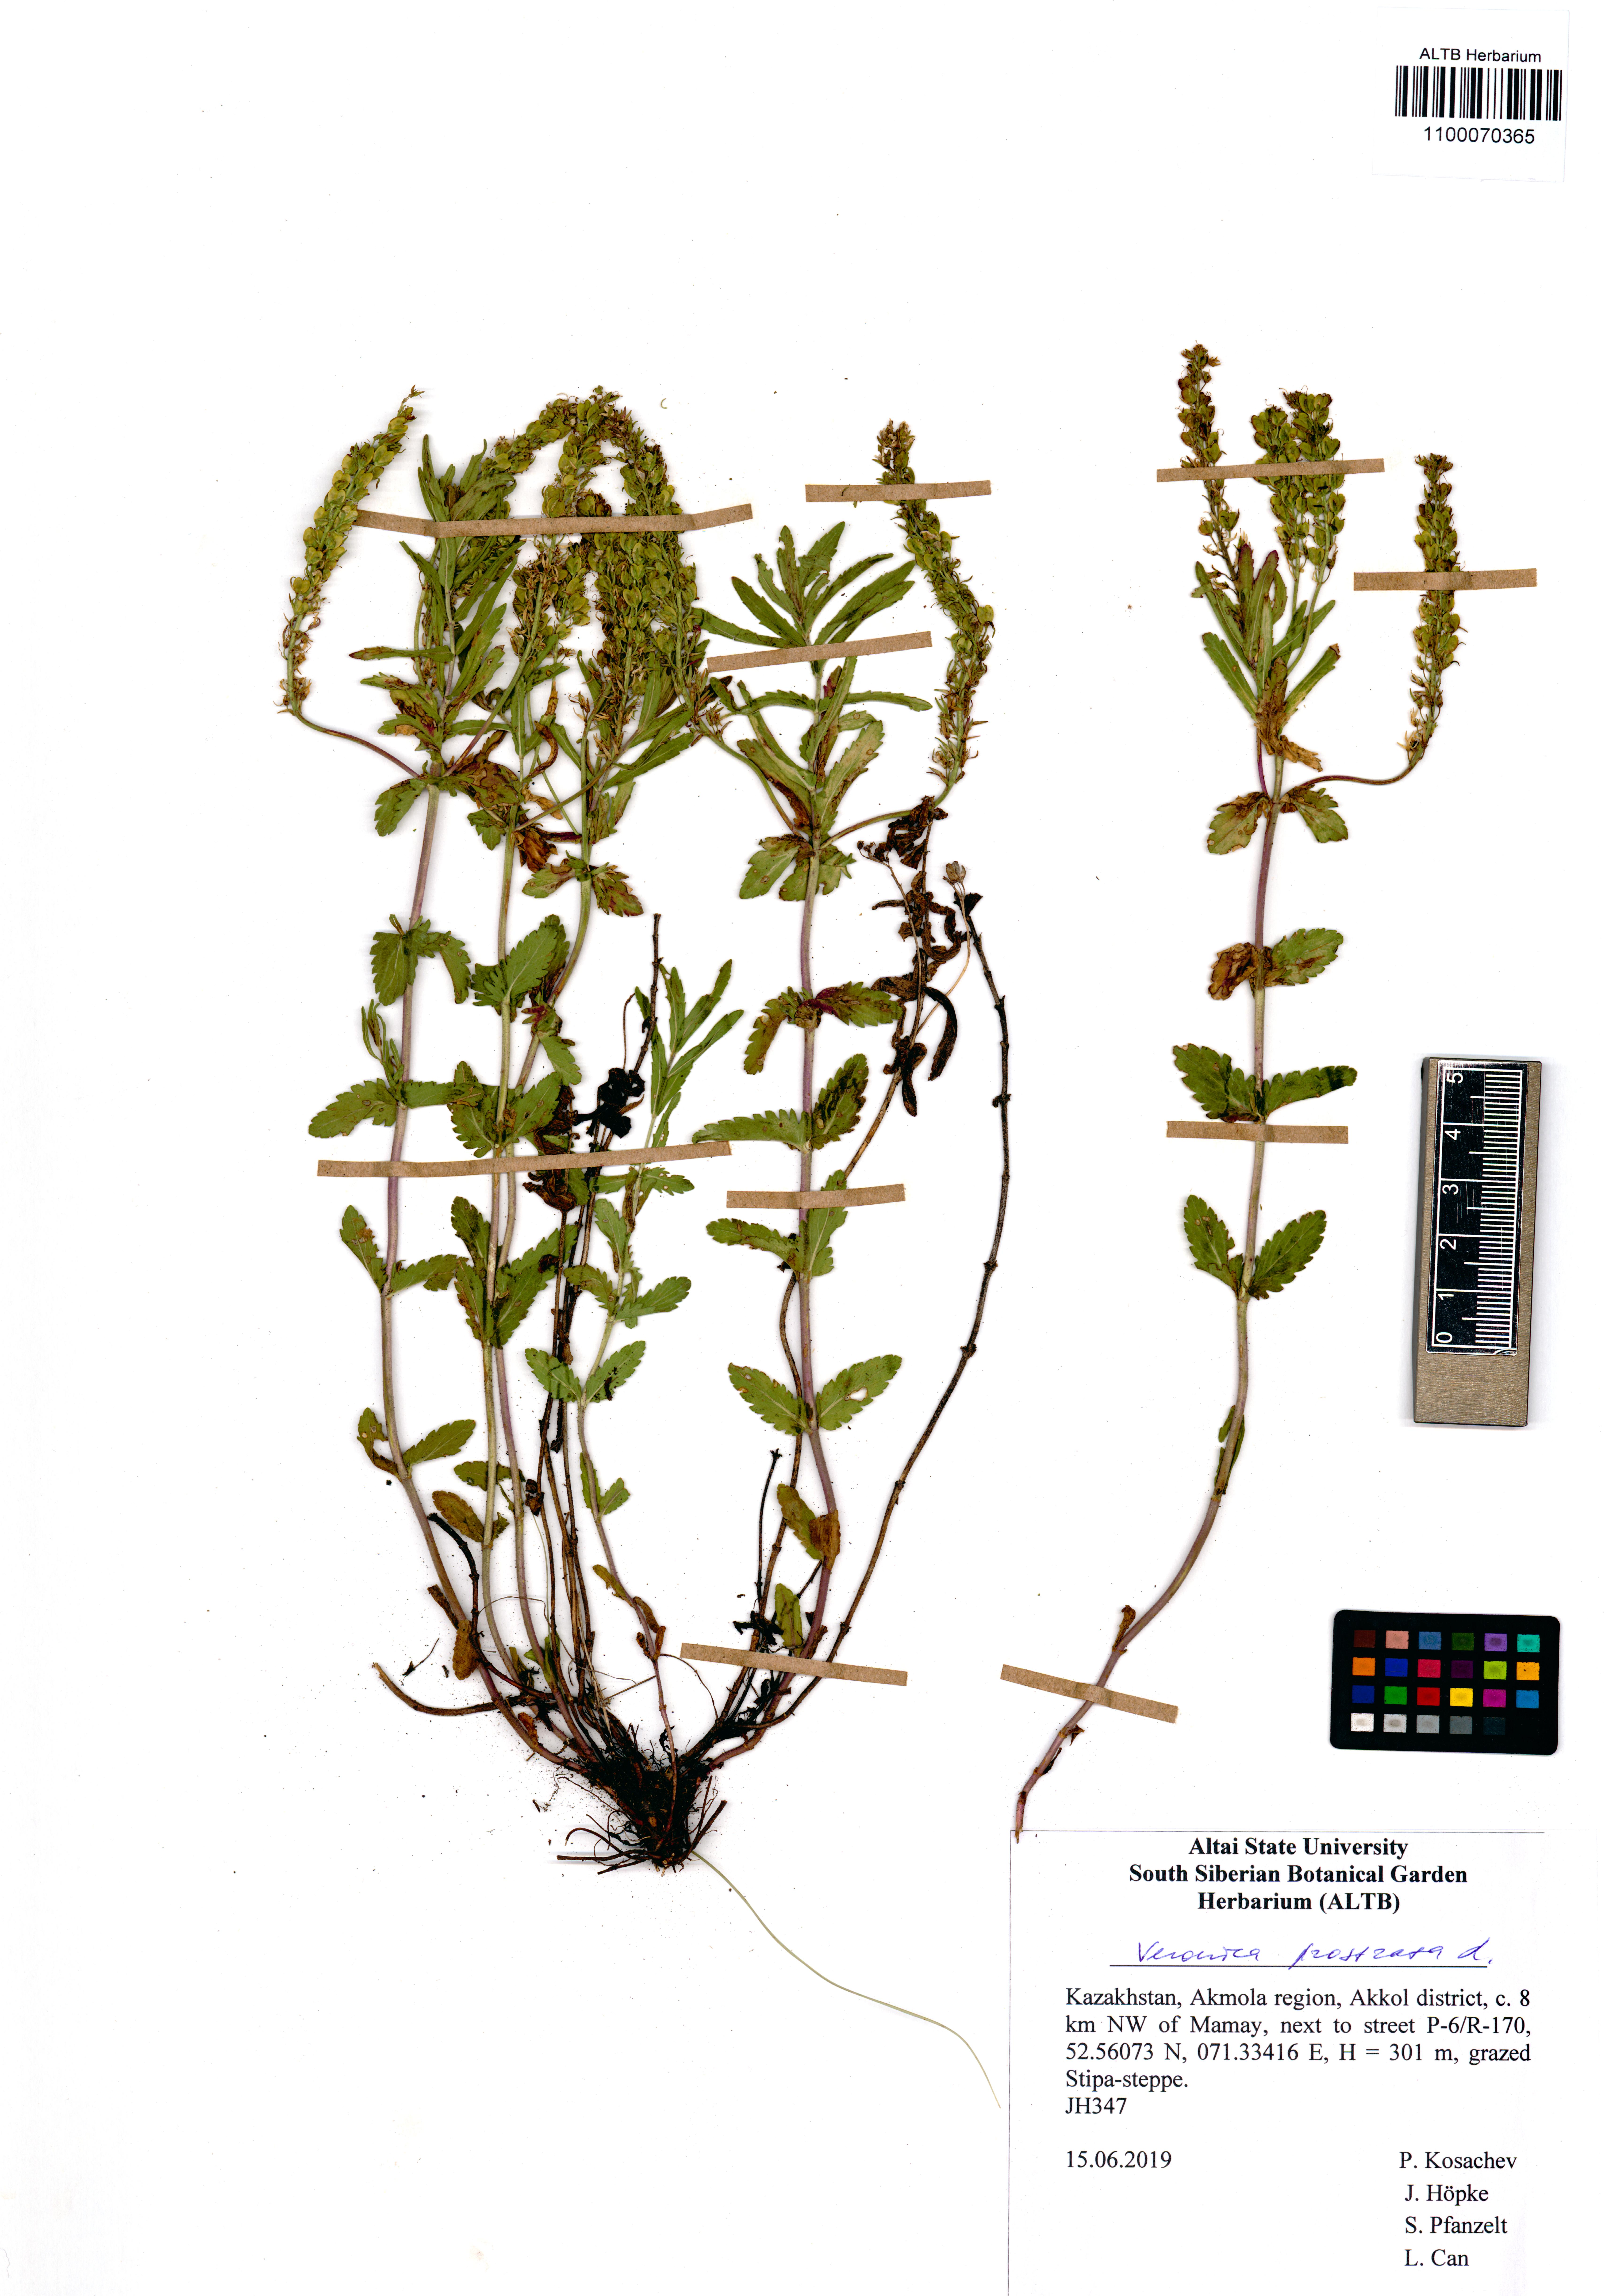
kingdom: Plantae
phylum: Tracheophyta
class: Magnoliopsida
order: Lamiales
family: Plantaginaceae
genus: Veronica
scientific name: Veronica prostrata
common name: Prostrate speedwell
